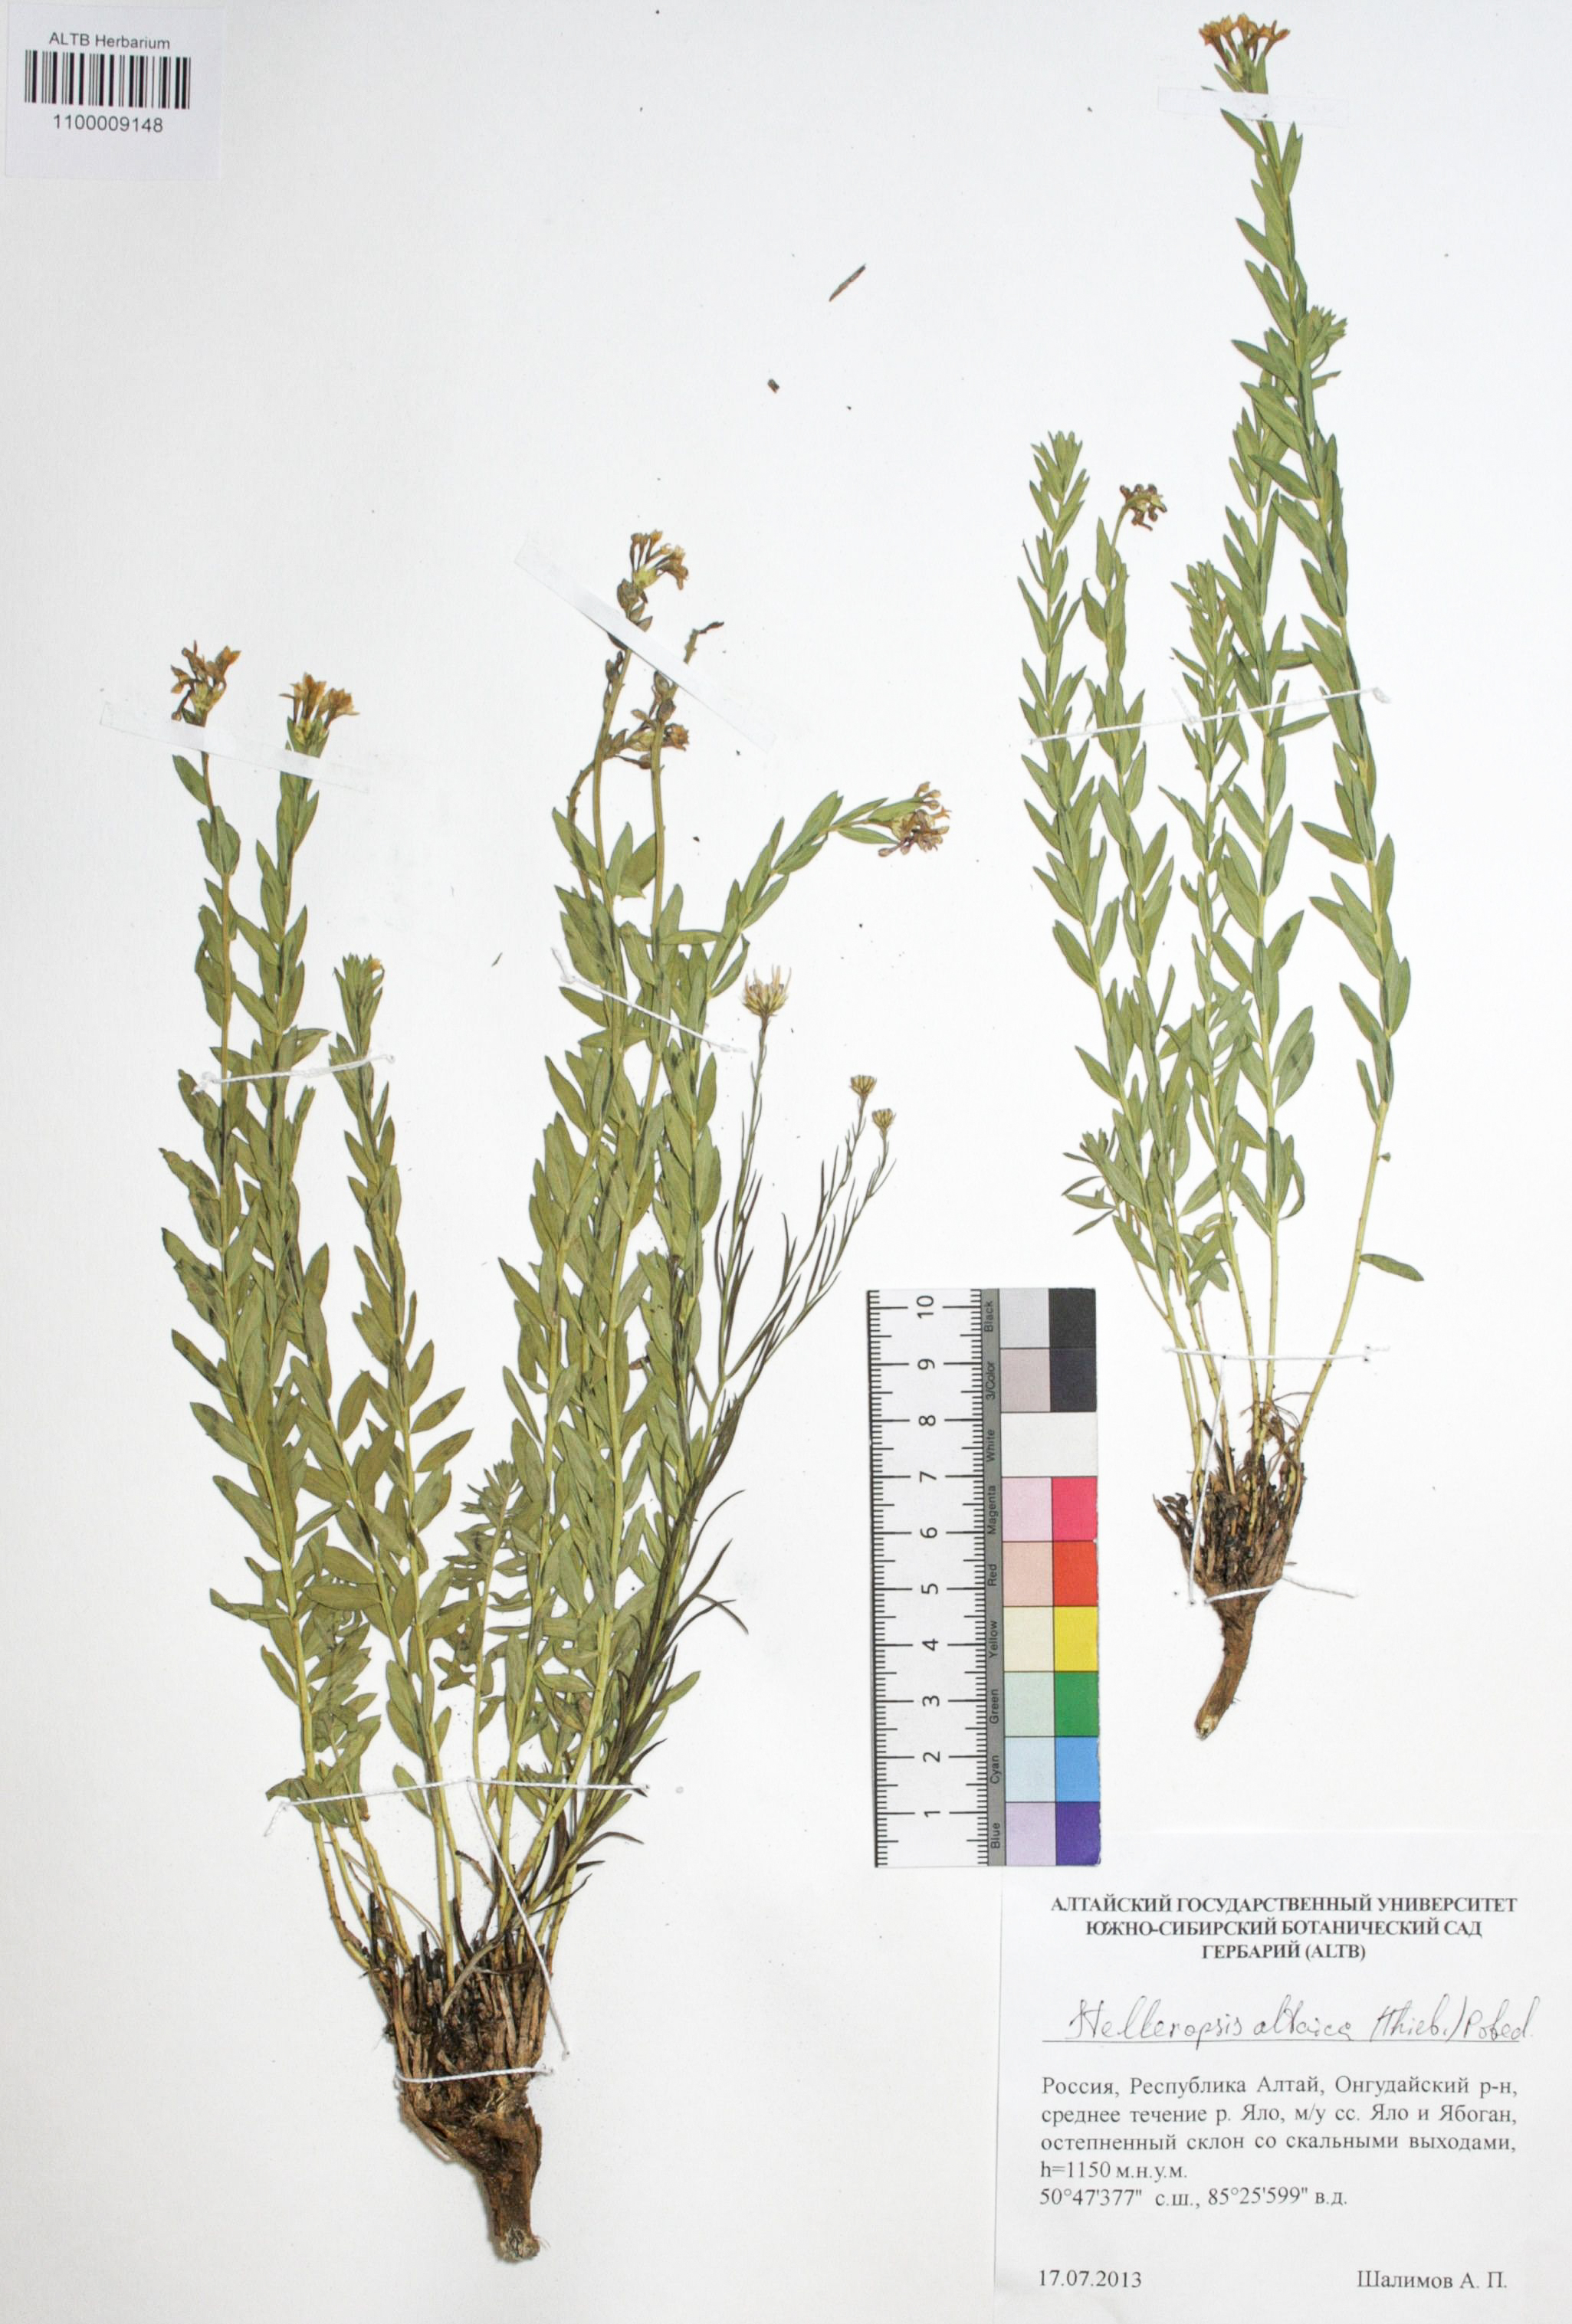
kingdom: Plantae
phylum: Tracheophyta
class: Magnoliopsida
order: Malvales
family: Thymelaeaceae
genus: Diarthron
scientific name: Diarthron altaicum
